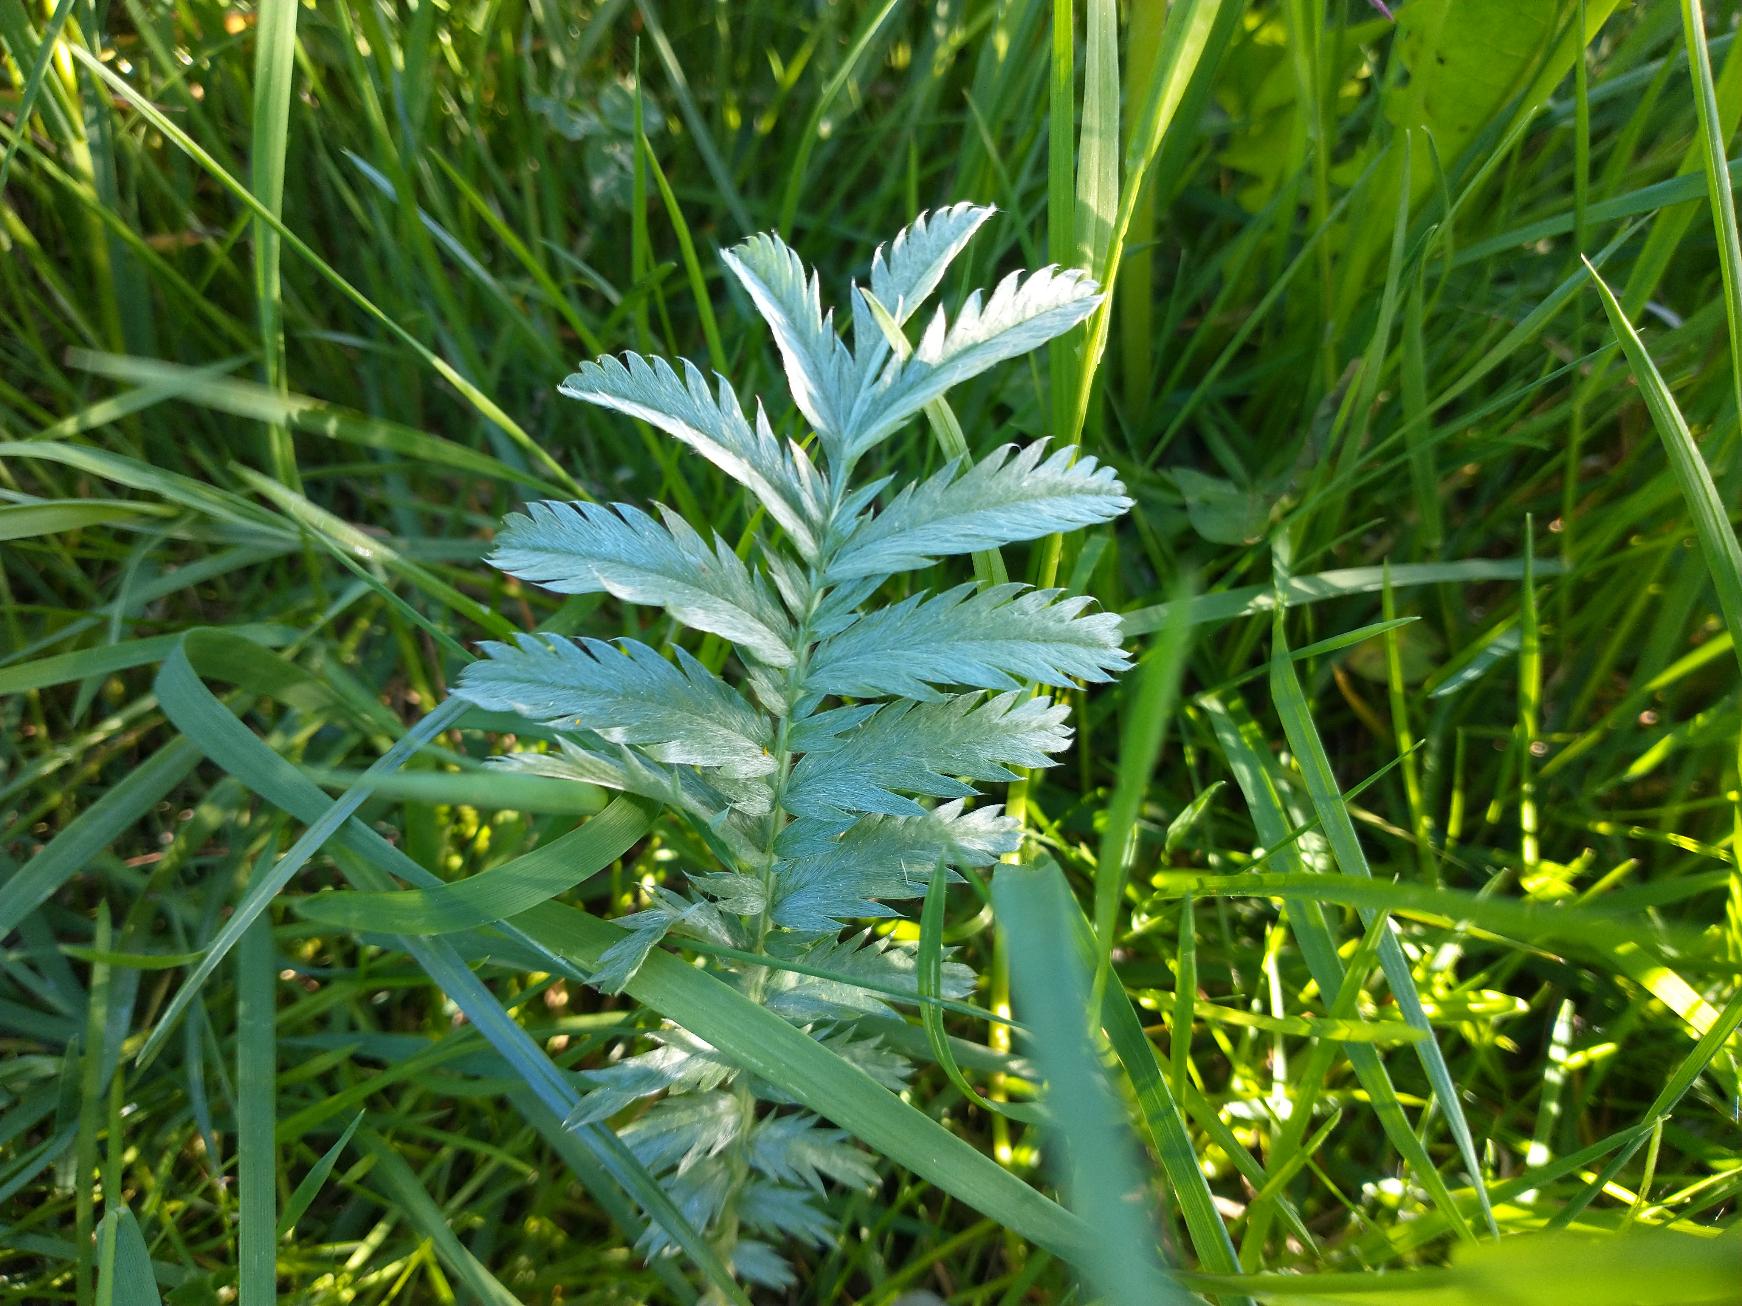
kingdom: Plantae
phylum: Tracheophyta
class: Magnoliopsida
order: Rosales
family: Rosaceae
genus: Argentina
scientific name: Argentina anserina
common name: Gåsepotentil
